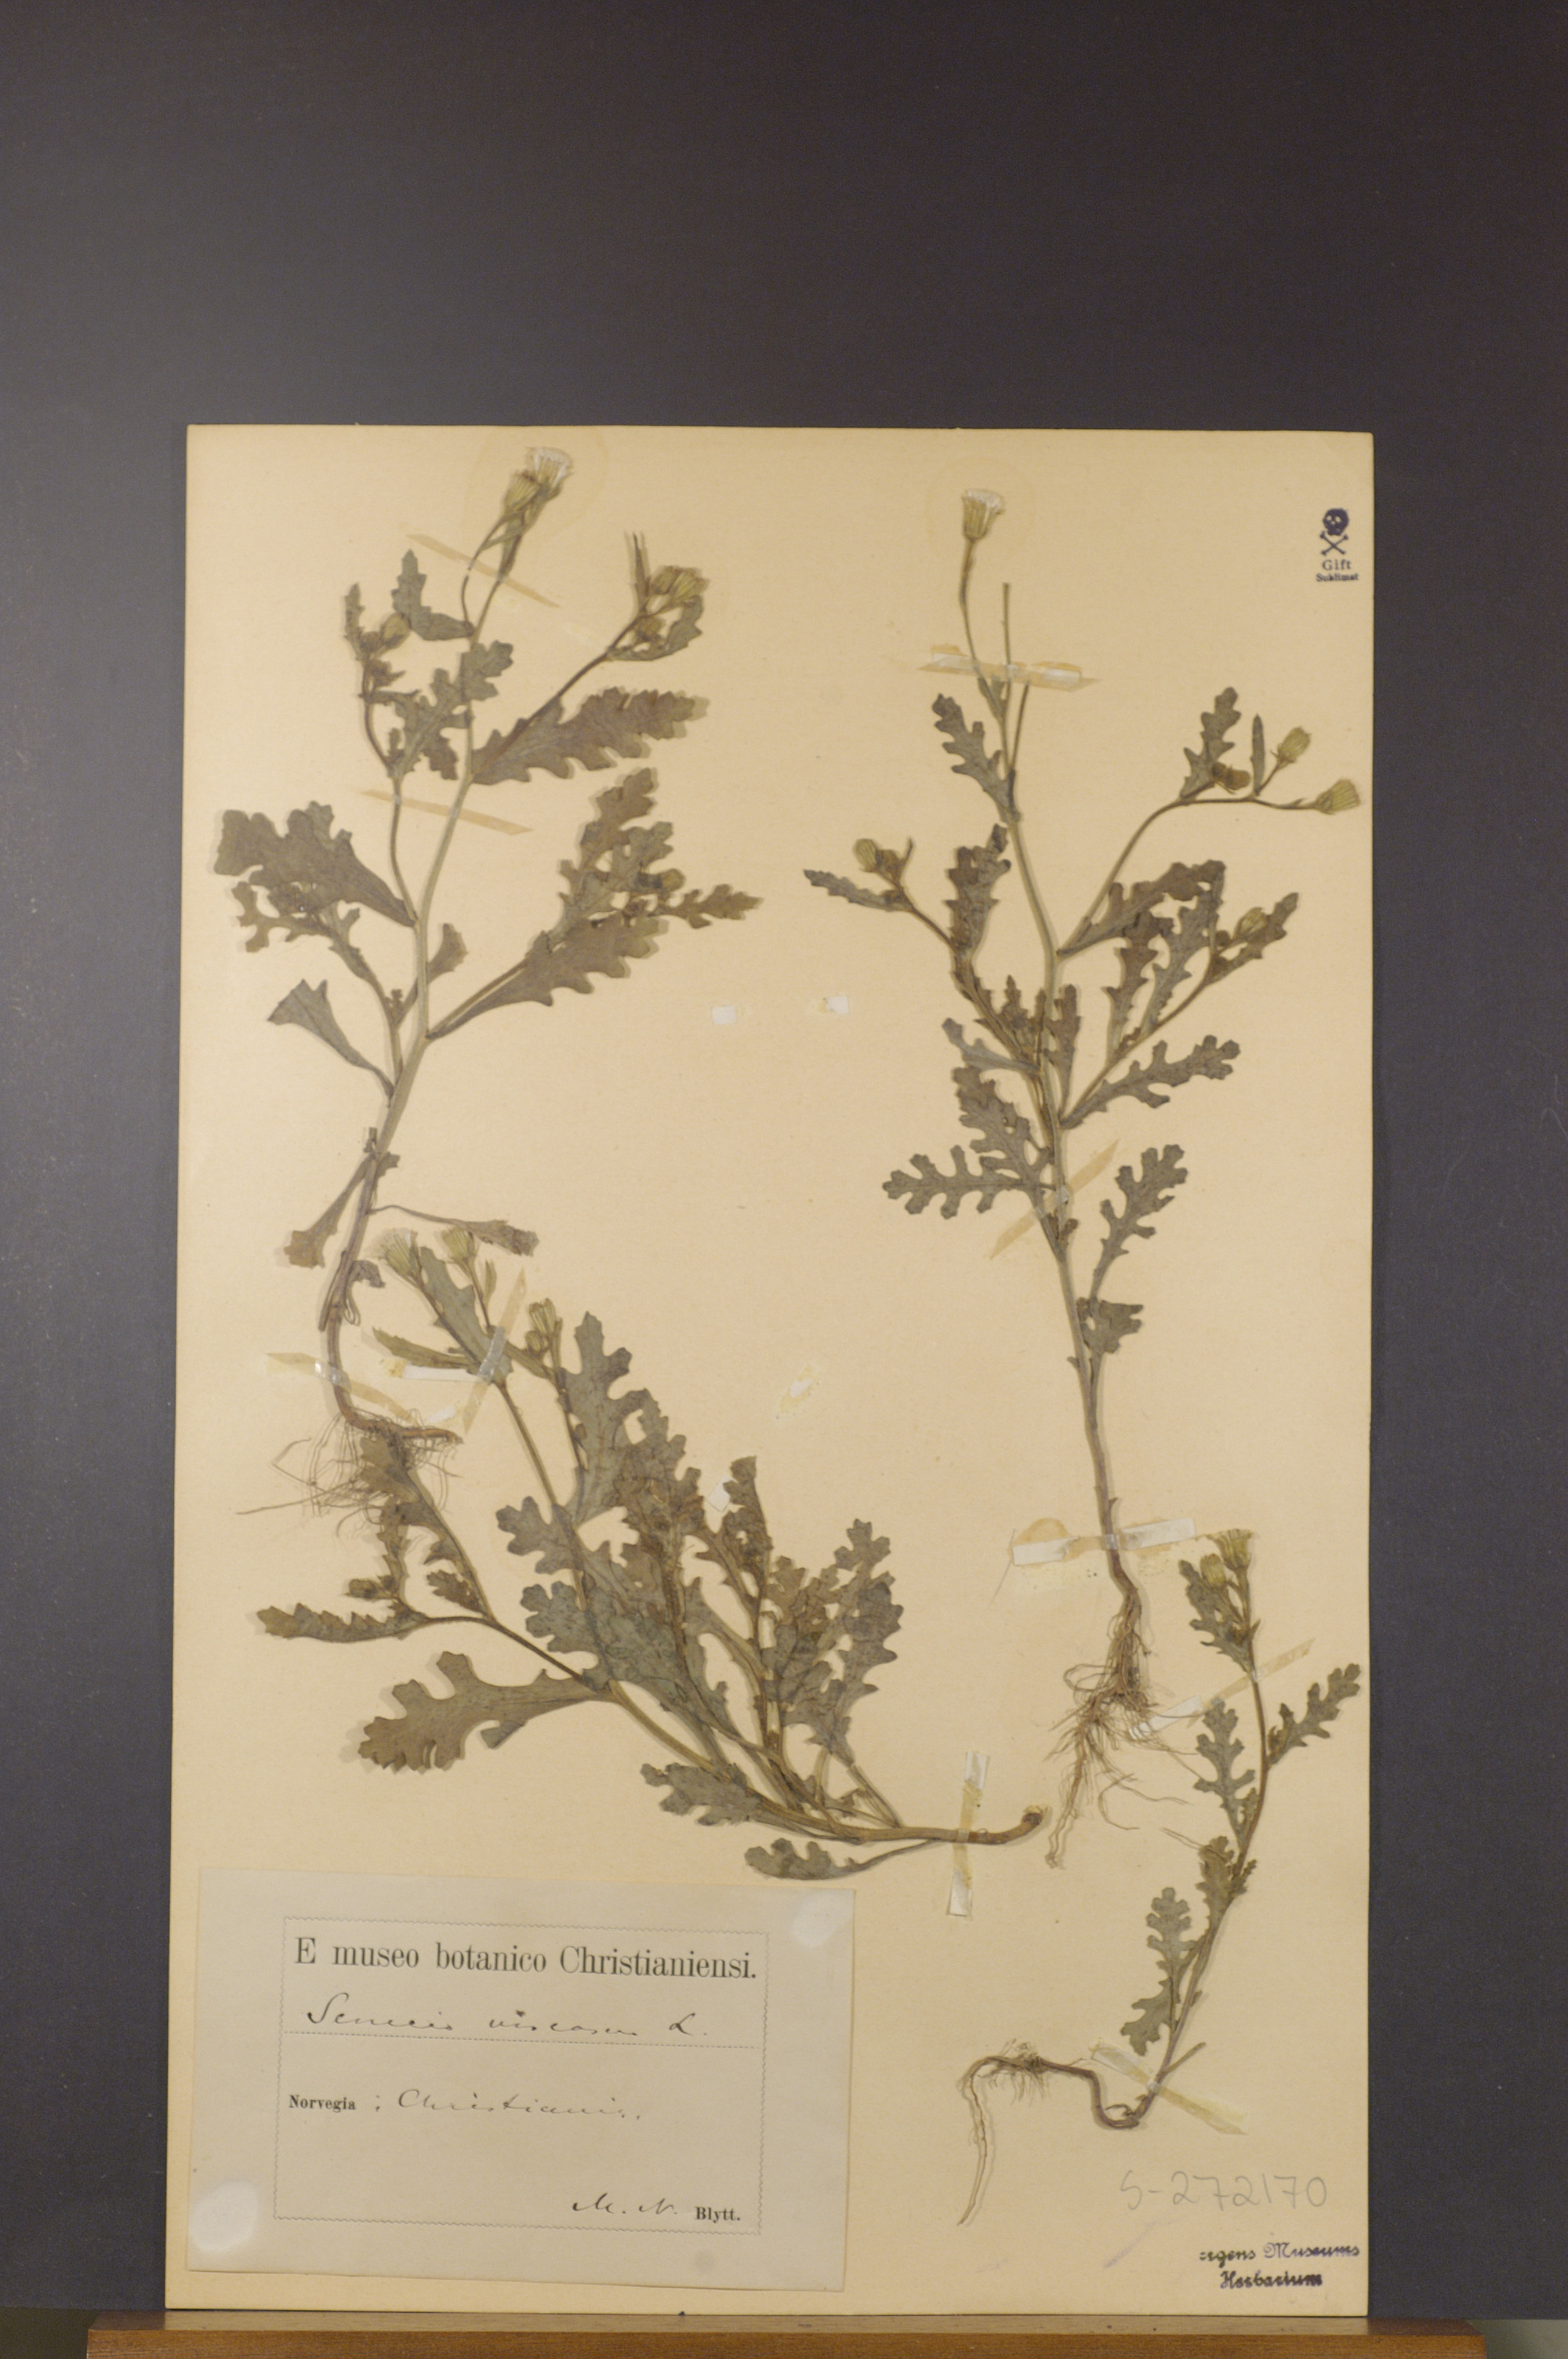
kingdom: Plantae
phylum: Tracheophyta
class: Magnoliopsida
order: Asterales
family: Asteraceae
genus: Senecio
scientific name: Senecio viscosus
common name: Sticky groundsel
